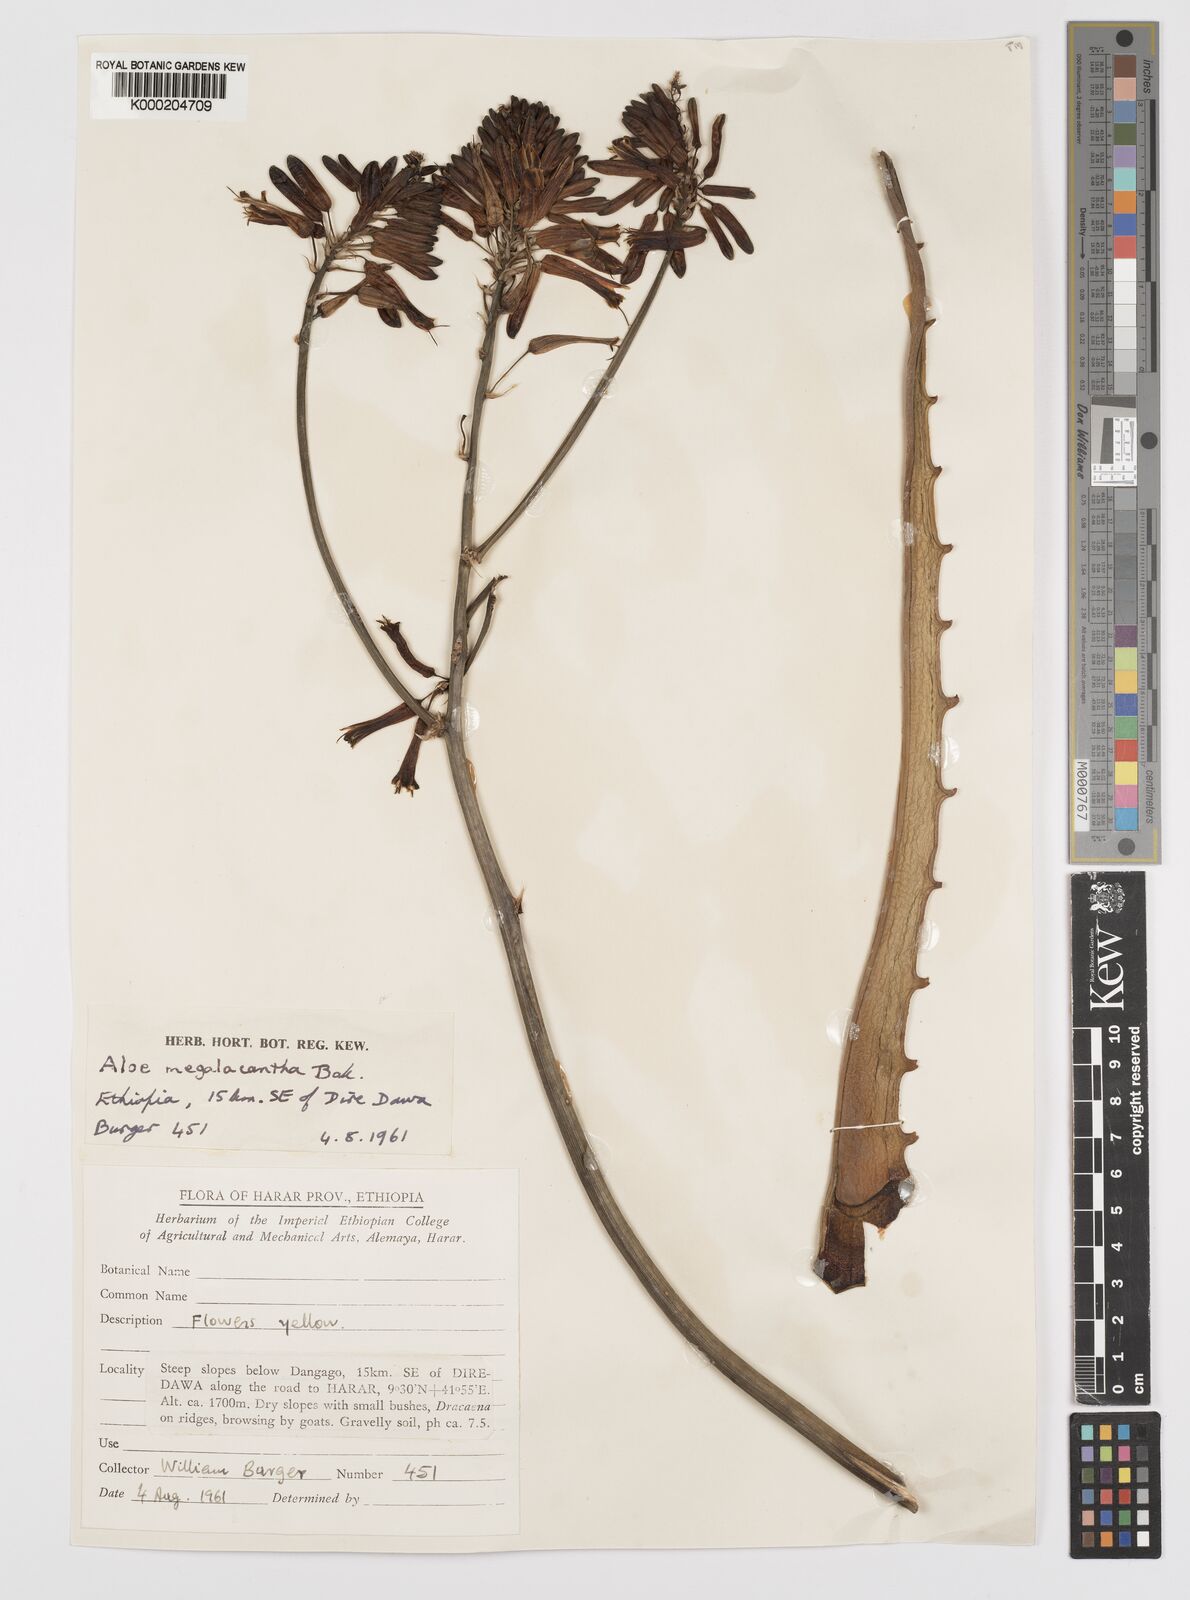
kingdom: Plantae
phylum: Tracheophyta
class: Liliopsida
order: Asparagales
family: Asphodelaceae
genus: Aloe
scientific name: Aloe megalacantha
